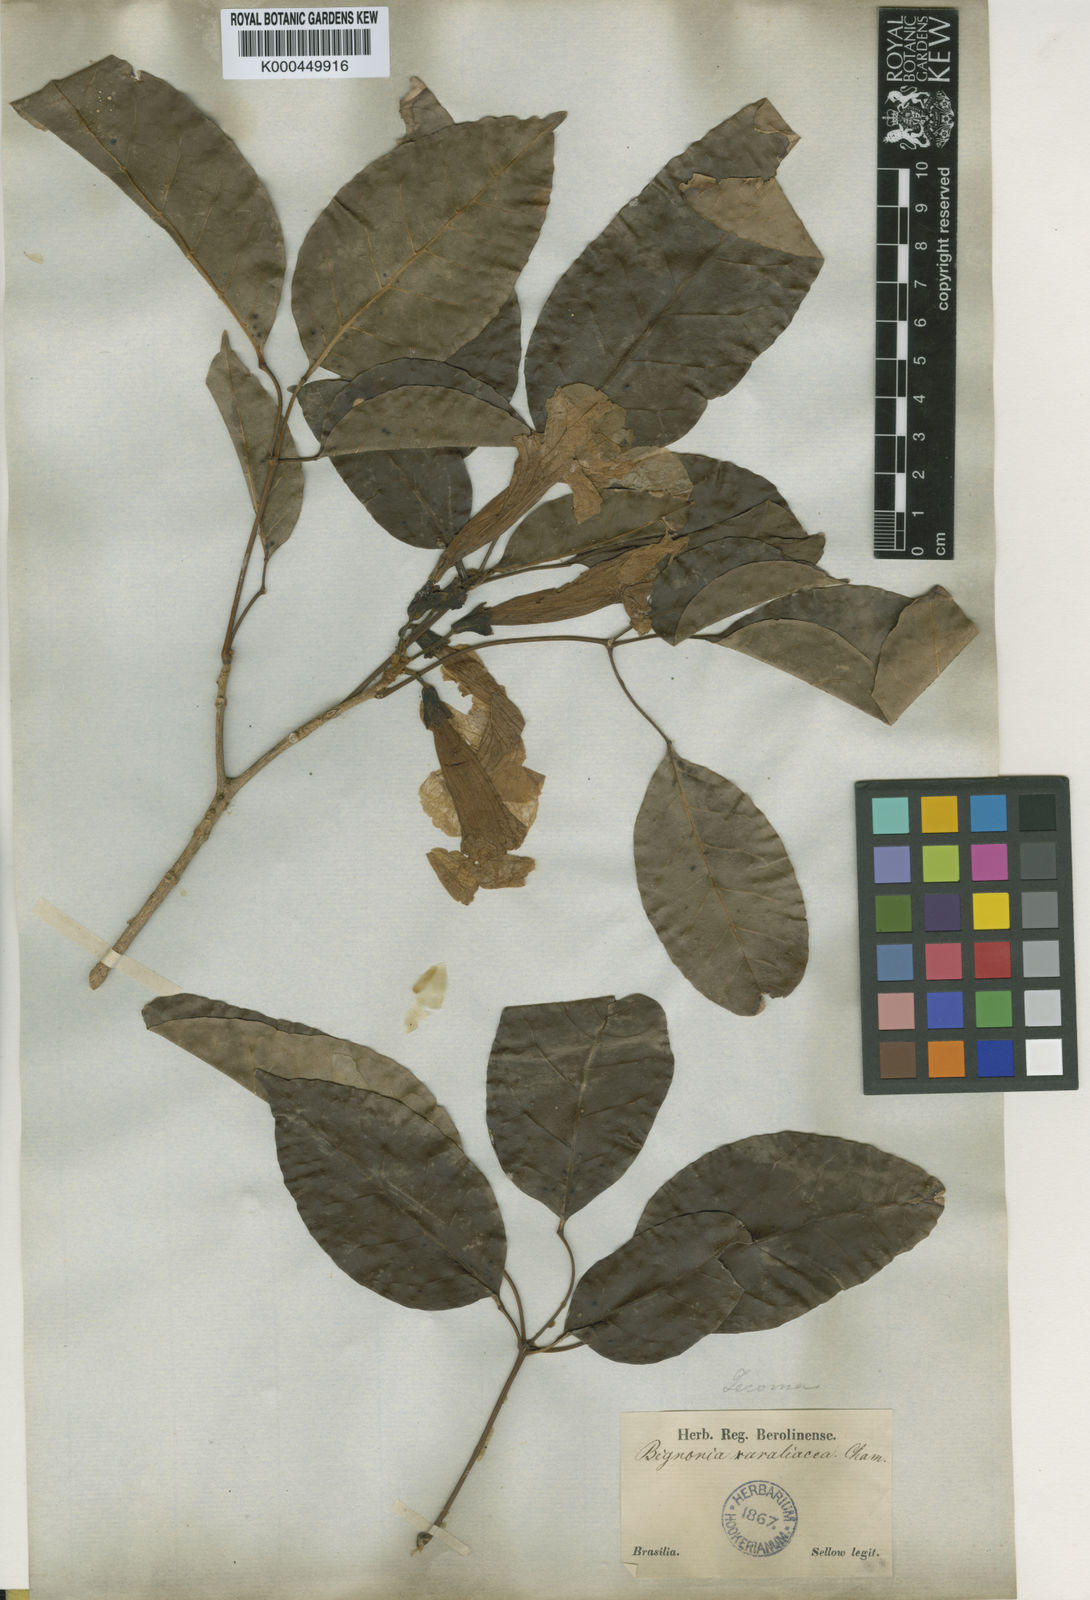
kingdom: Plantae
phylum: Tracheophyta
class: Magnoliopsida
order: Lamiales
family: Bignoniaceae
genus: Handroanthus
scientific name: Handroanthus serratifolius
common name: Yellow ipe
